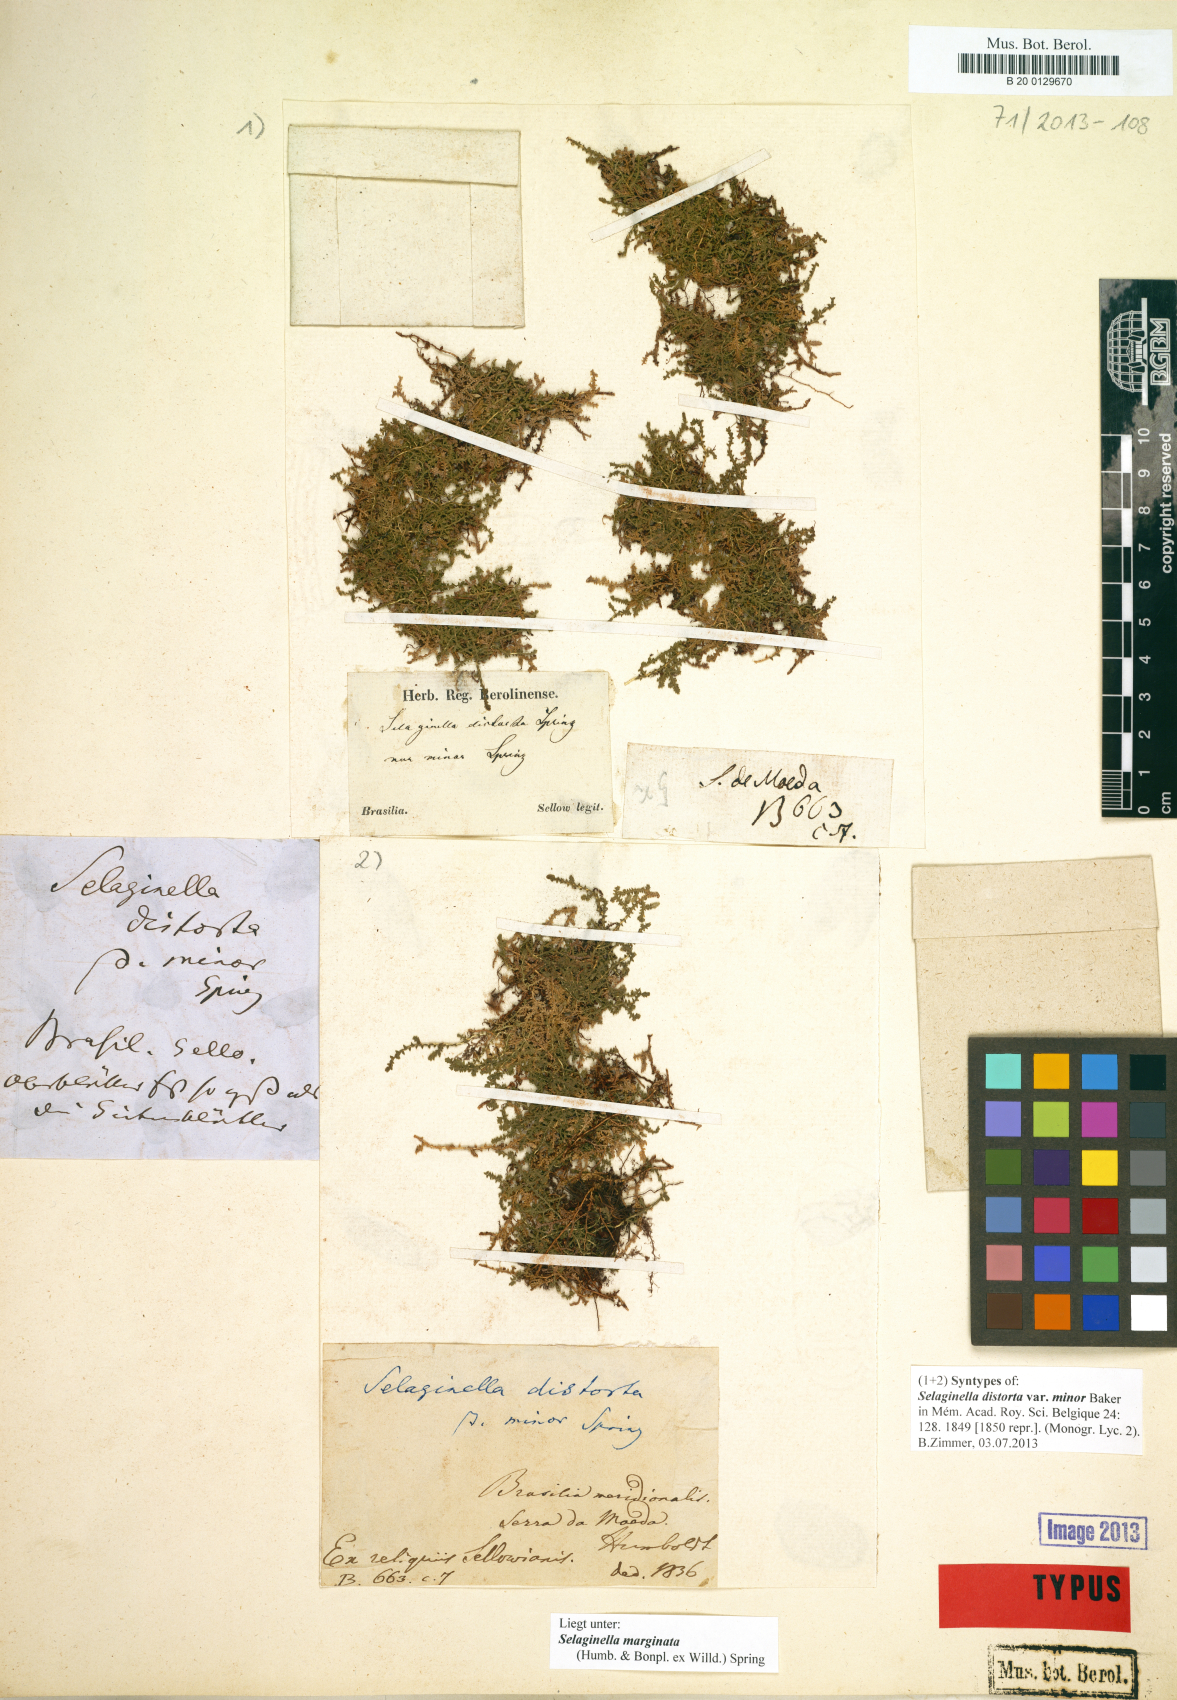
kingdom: Plantae
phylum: Tracheophyta
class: Lycopodiopsida
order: Selaginellales
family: Selaginellaceae
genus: Selaginella
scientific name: Selaginella marginata
